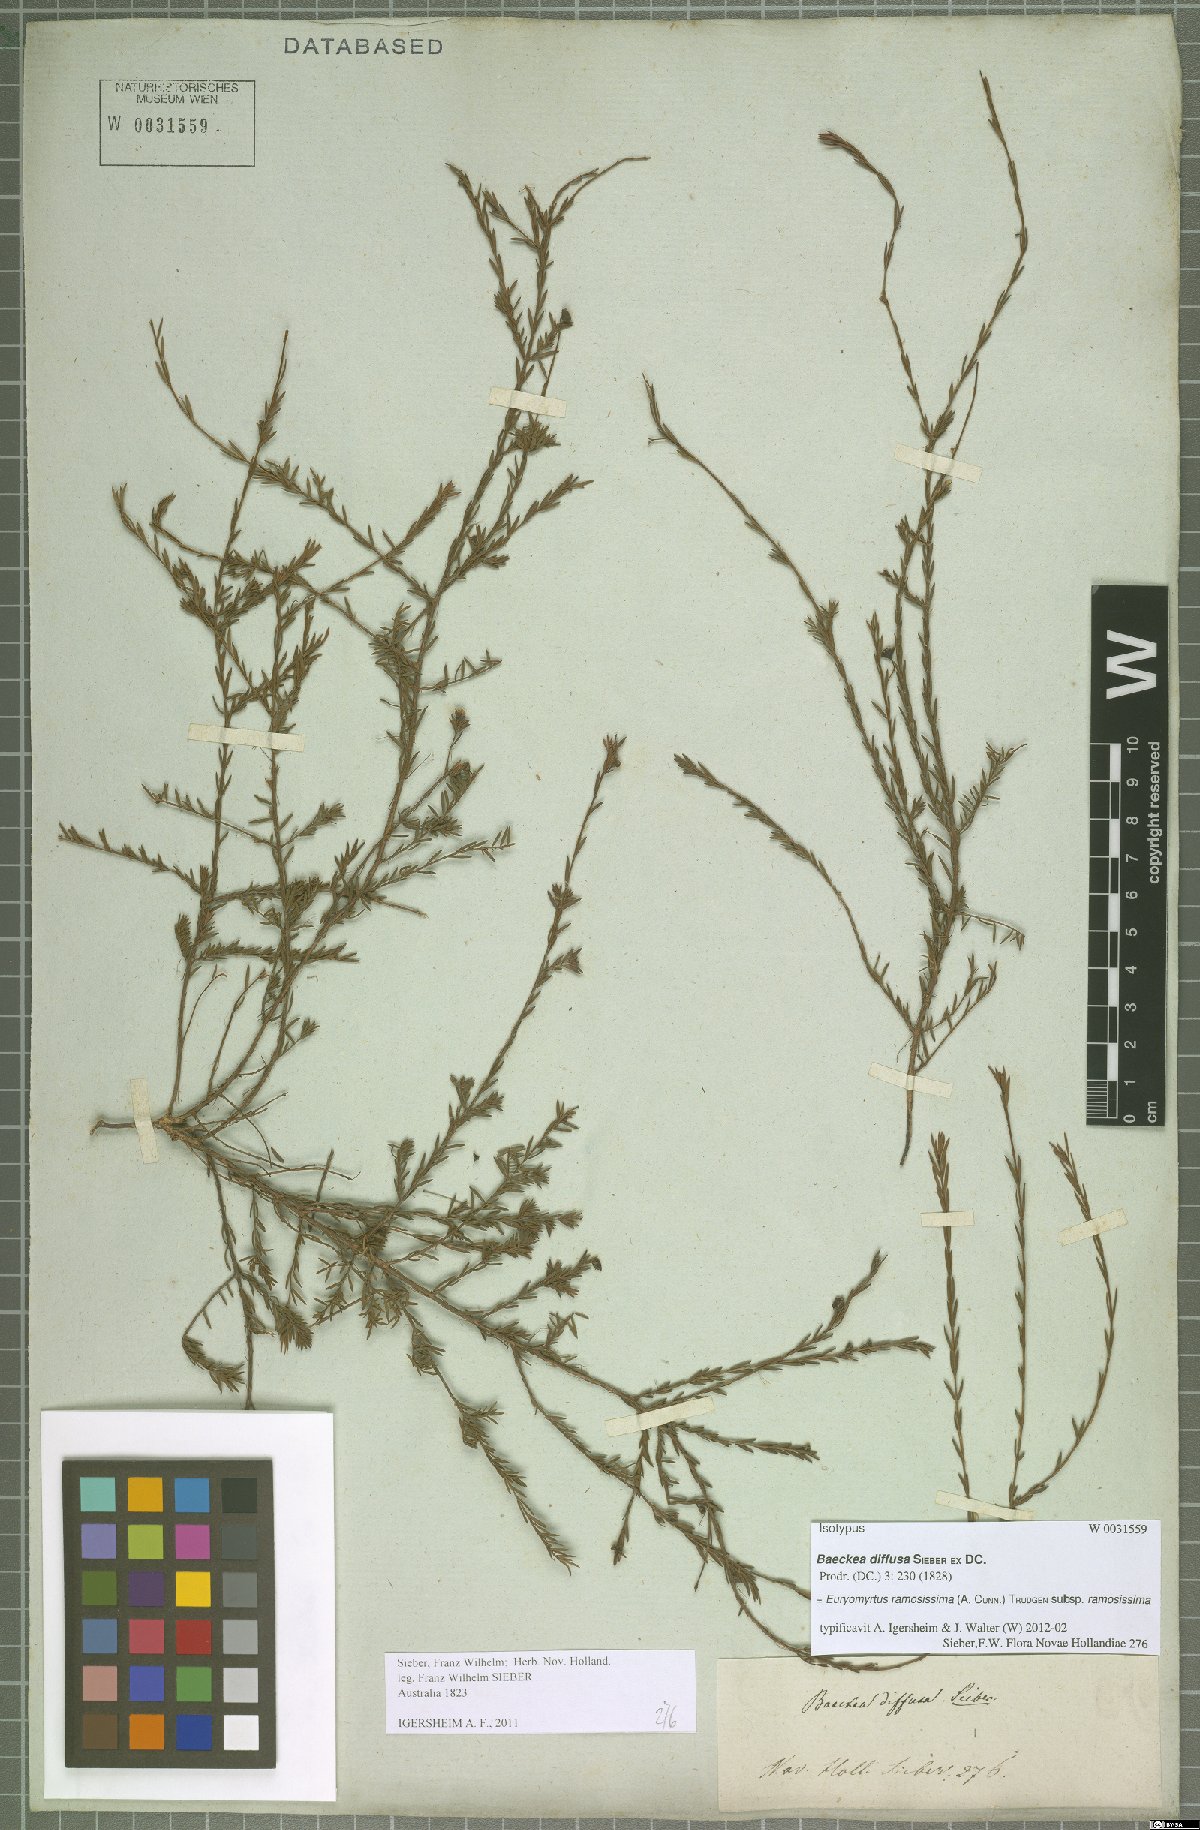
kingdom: Plantae
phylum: Tracheophyta
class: Magnoliopsida
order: Myrtales
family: Myrtaceae
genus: Euryomyrtus
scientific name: Euryomyrtus ramosissima
